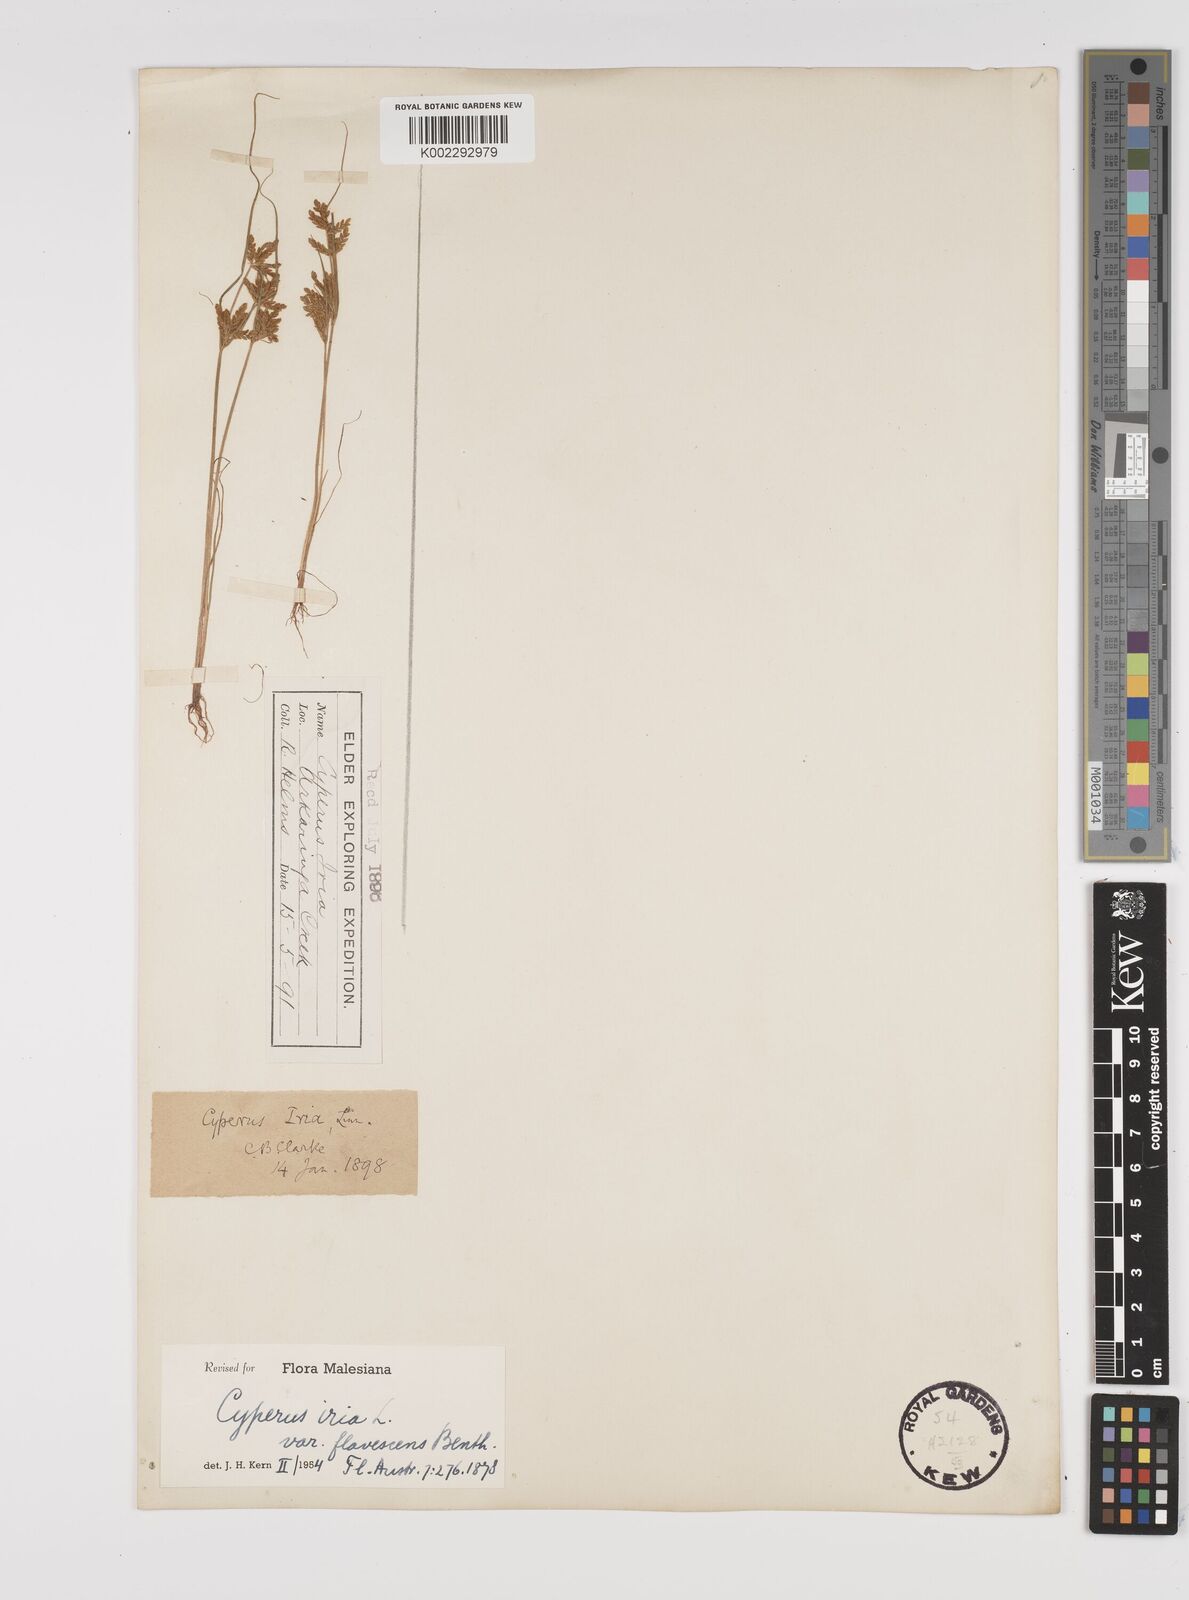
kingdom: Plantae
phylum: Tracheophyta
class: Liliopsida
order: Poales
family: Cyperaceae
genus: Cyperus
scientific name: Cyperus iria
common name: Ricefield flatsedge
